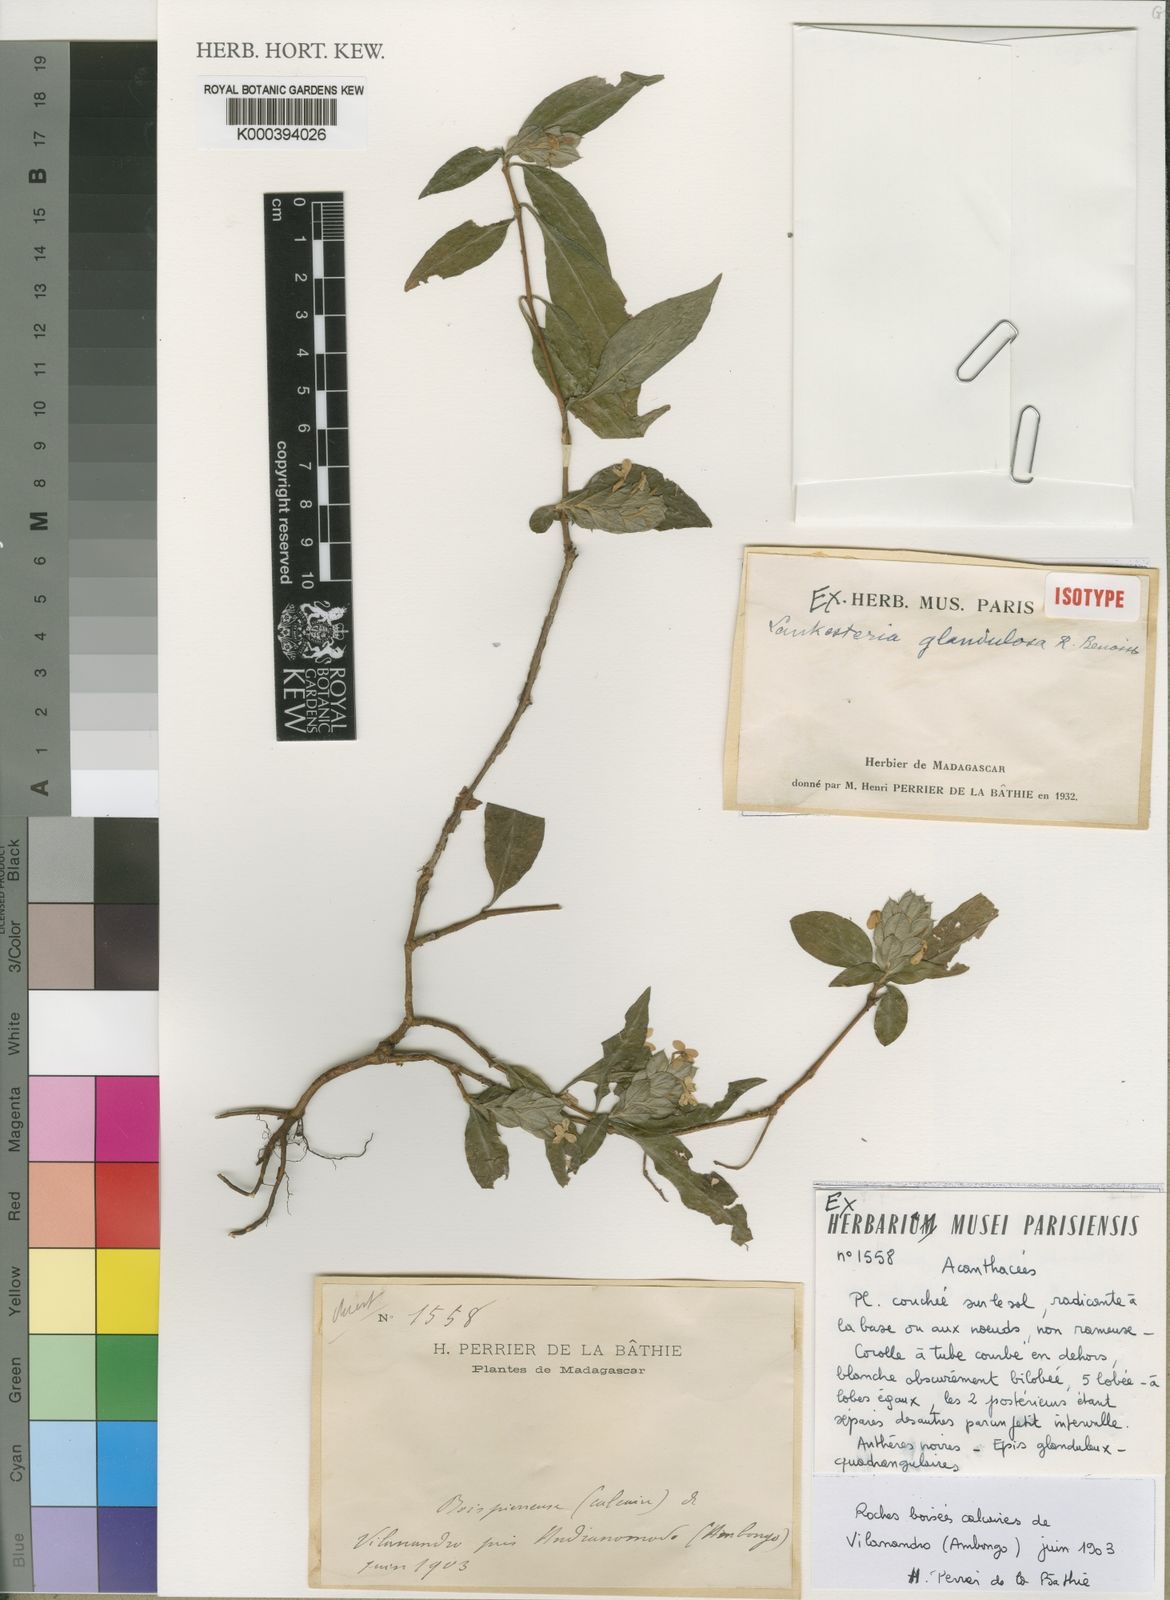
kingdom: Plantae
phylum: Tracheophyta
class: Magnoliopsida
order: Lamiales
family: Acanthaceae
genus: Lankesteria
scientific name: Lankesteria glandulosa
